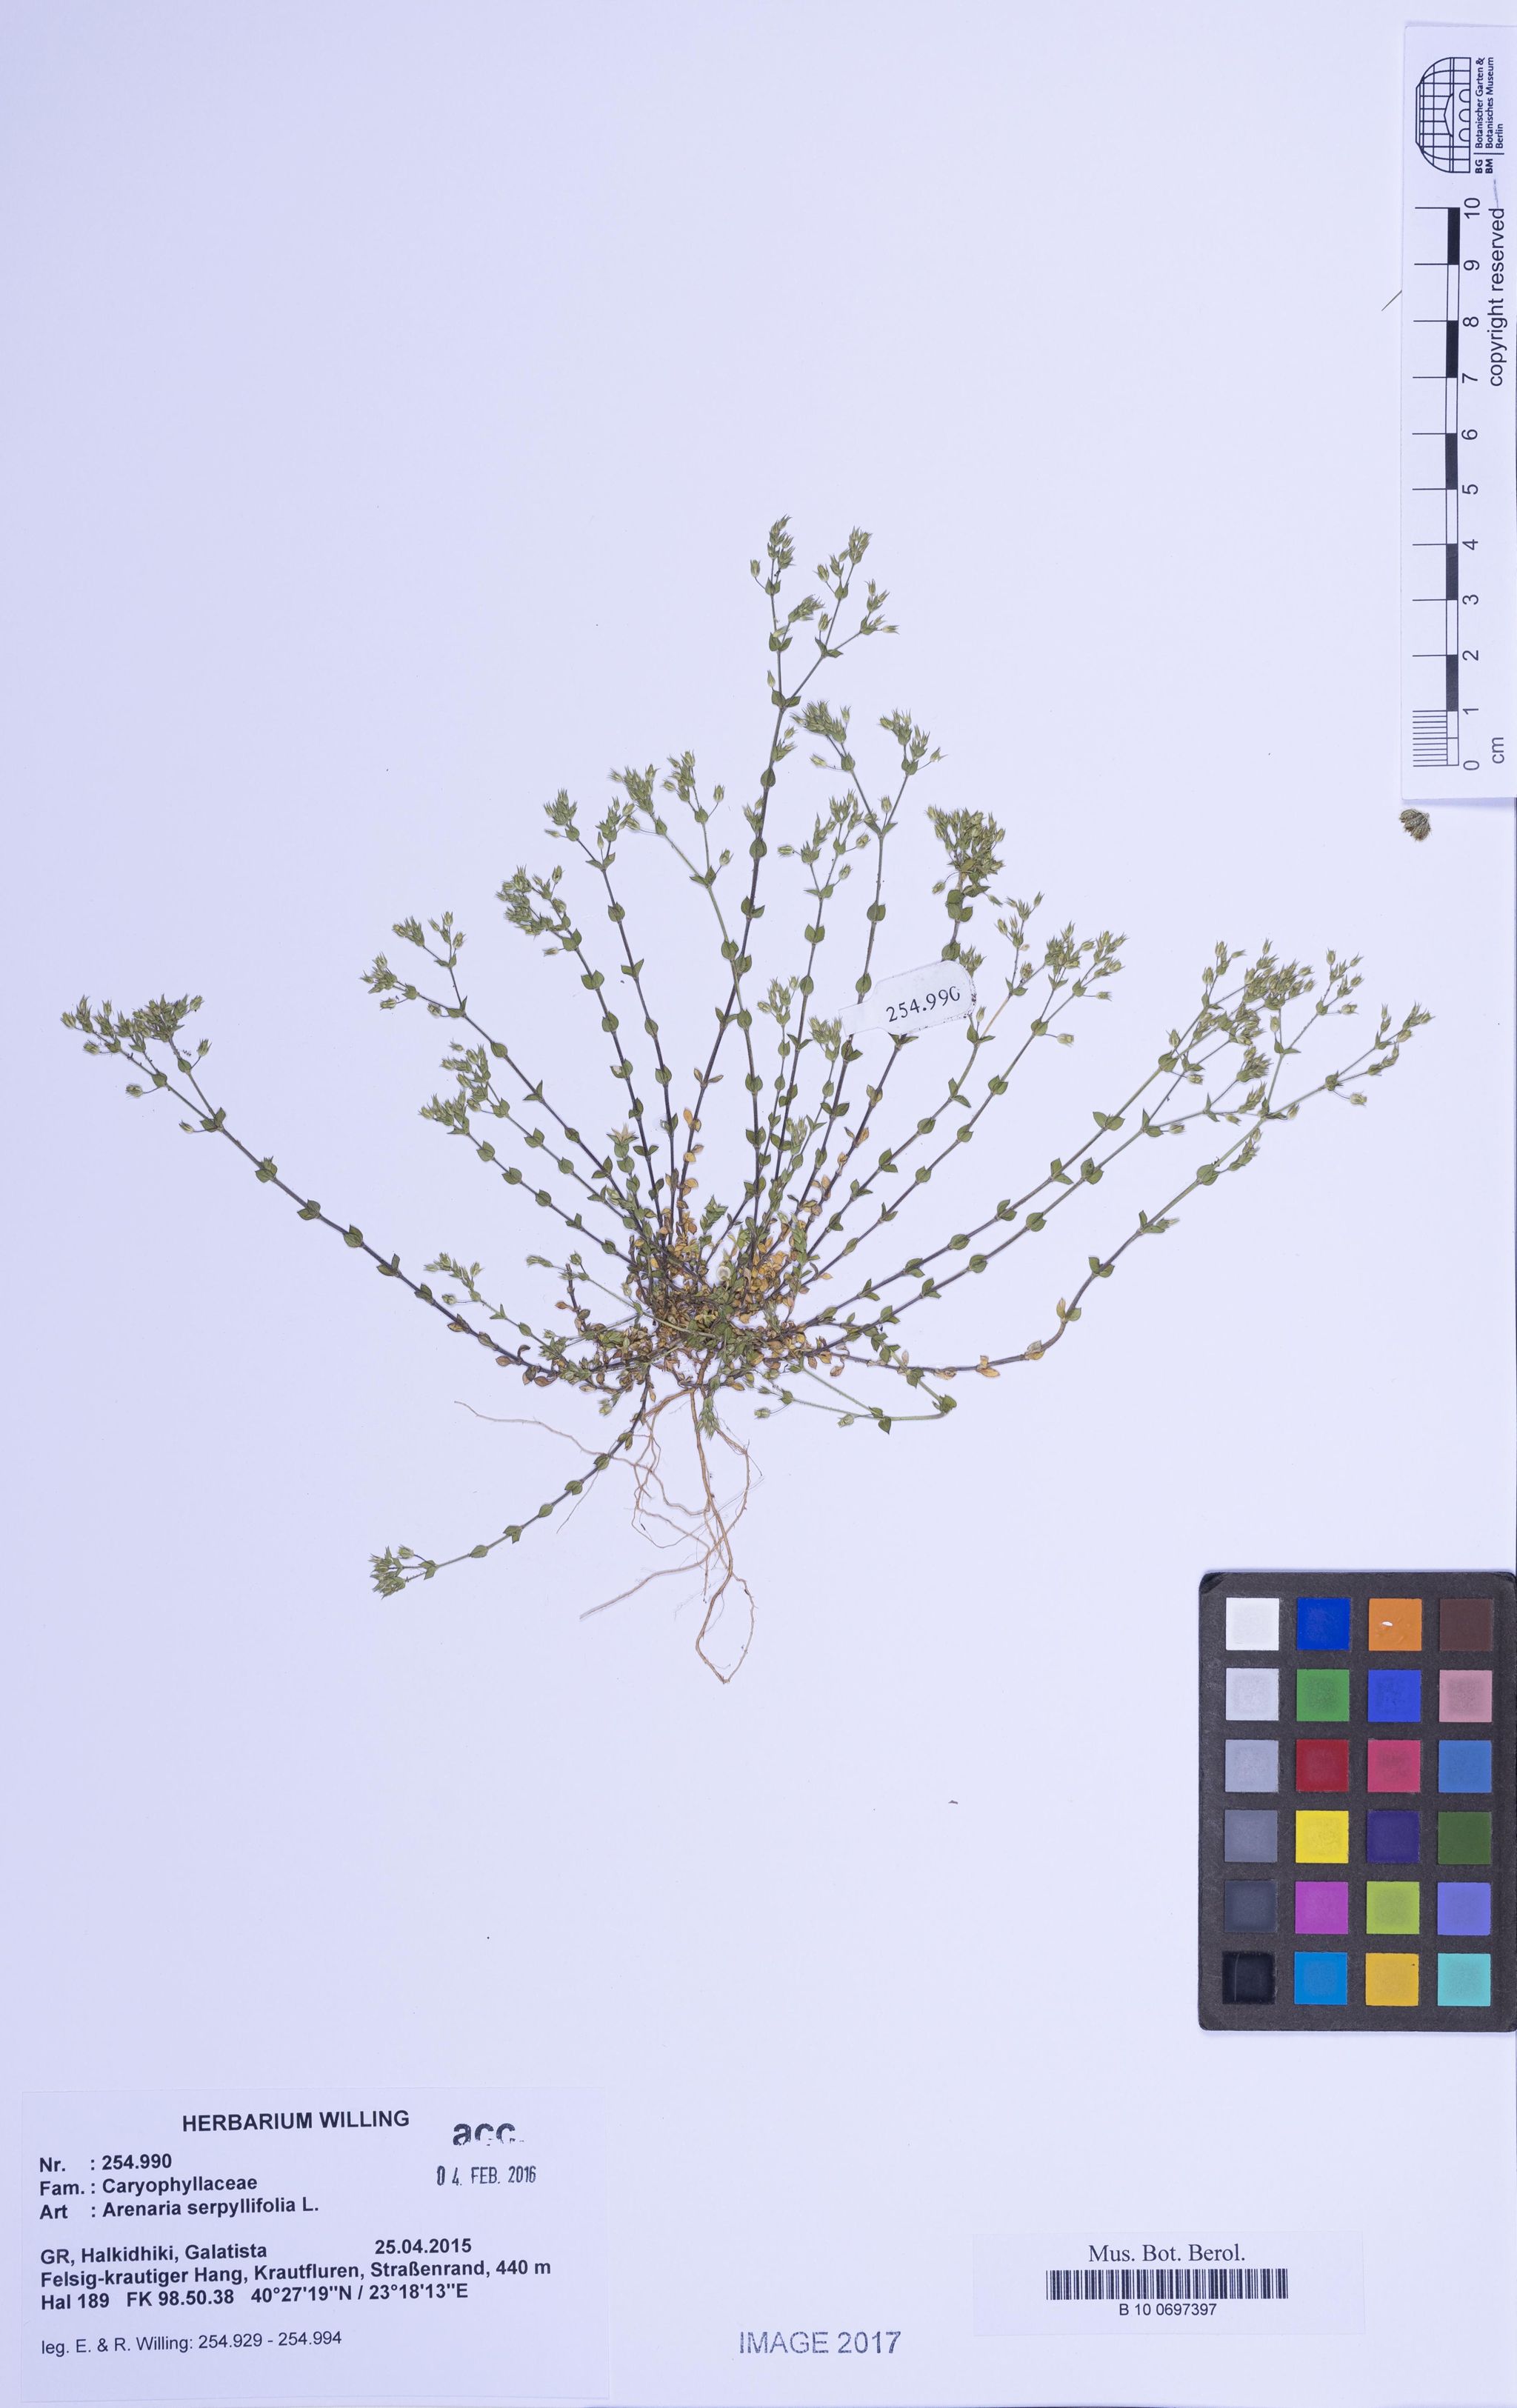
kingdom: Plantae
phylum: Tracheophyta
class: Magnoliopsida
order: Caryophyllales
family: Caryophyllaceae
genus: Arenaria
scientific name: Arenaria serpyllifolia
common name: Thyme-leaved sandwort
